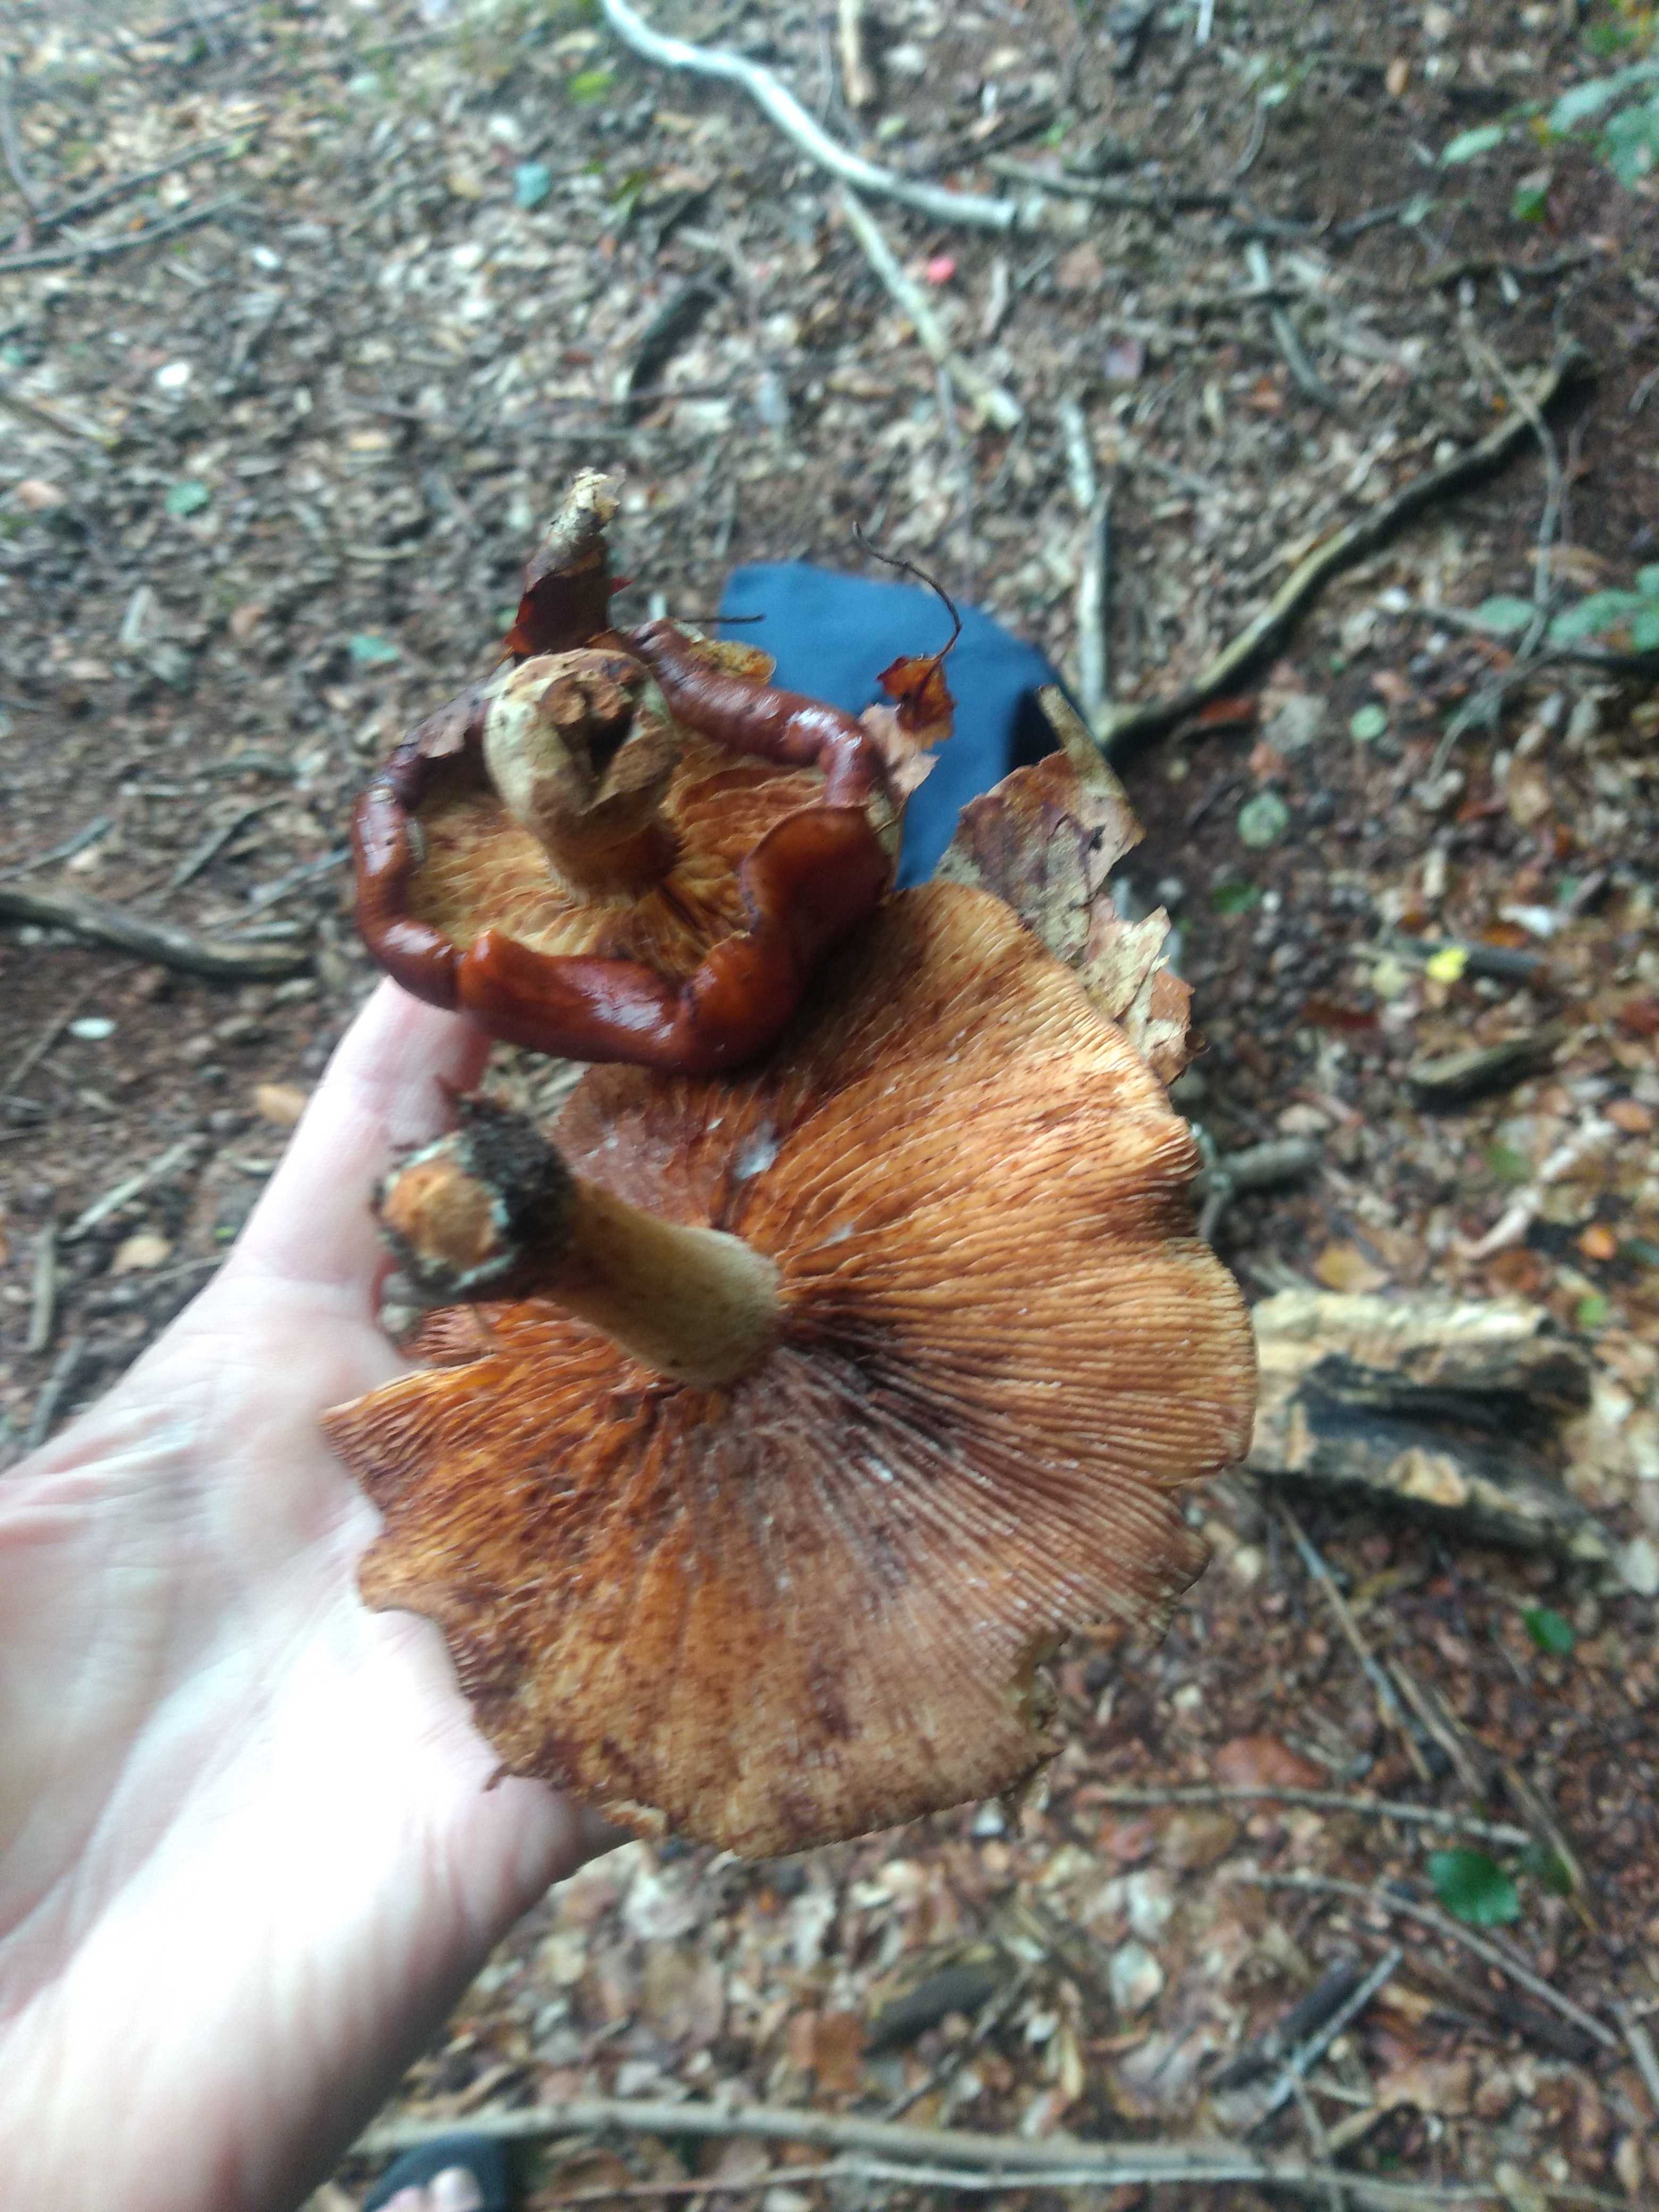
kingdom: Fungi
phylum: Basidiomycota
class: Agaricomycetes
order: Agaricales
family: Tricholomataceae
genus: Tricholoma
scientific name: Tricholoma ustale
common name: sveden ridderhat
